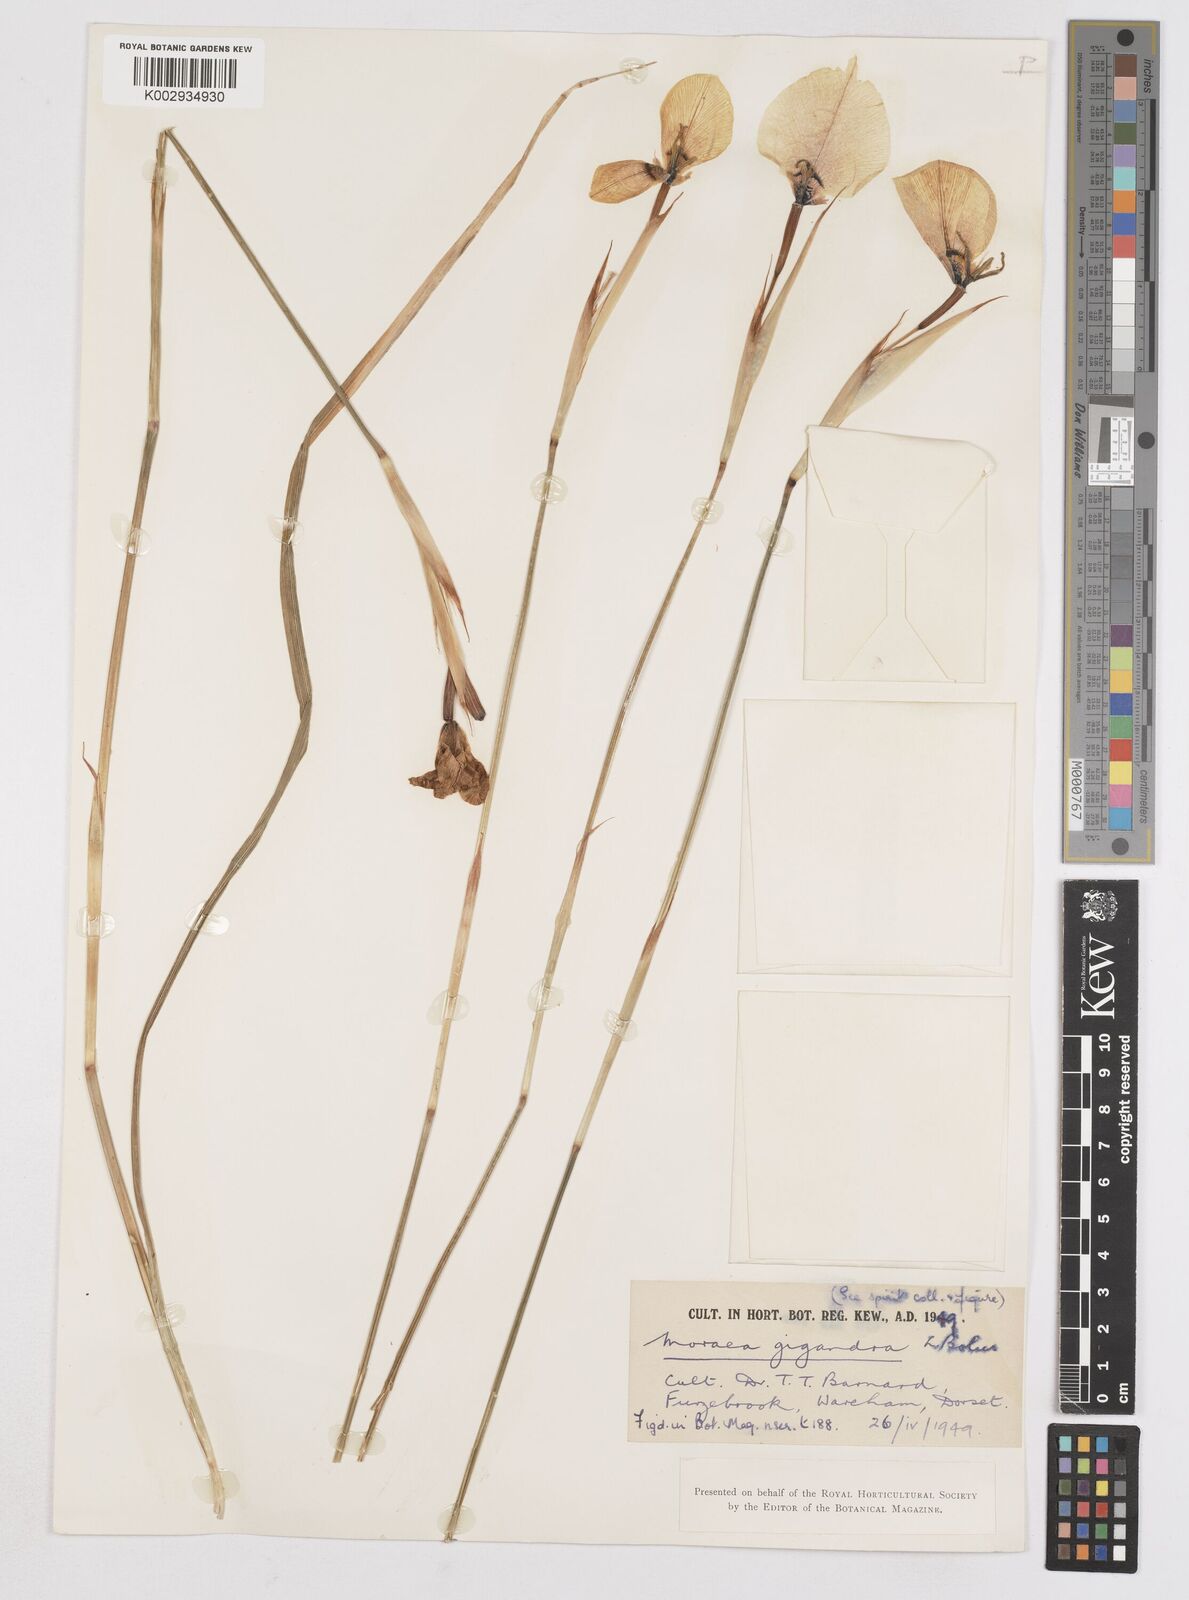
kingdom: Plantae
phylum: Tracheophyta
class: Liliopsida
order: Asparagales
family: Iridaceae
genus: Moraea
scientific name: Moraea gigandra
